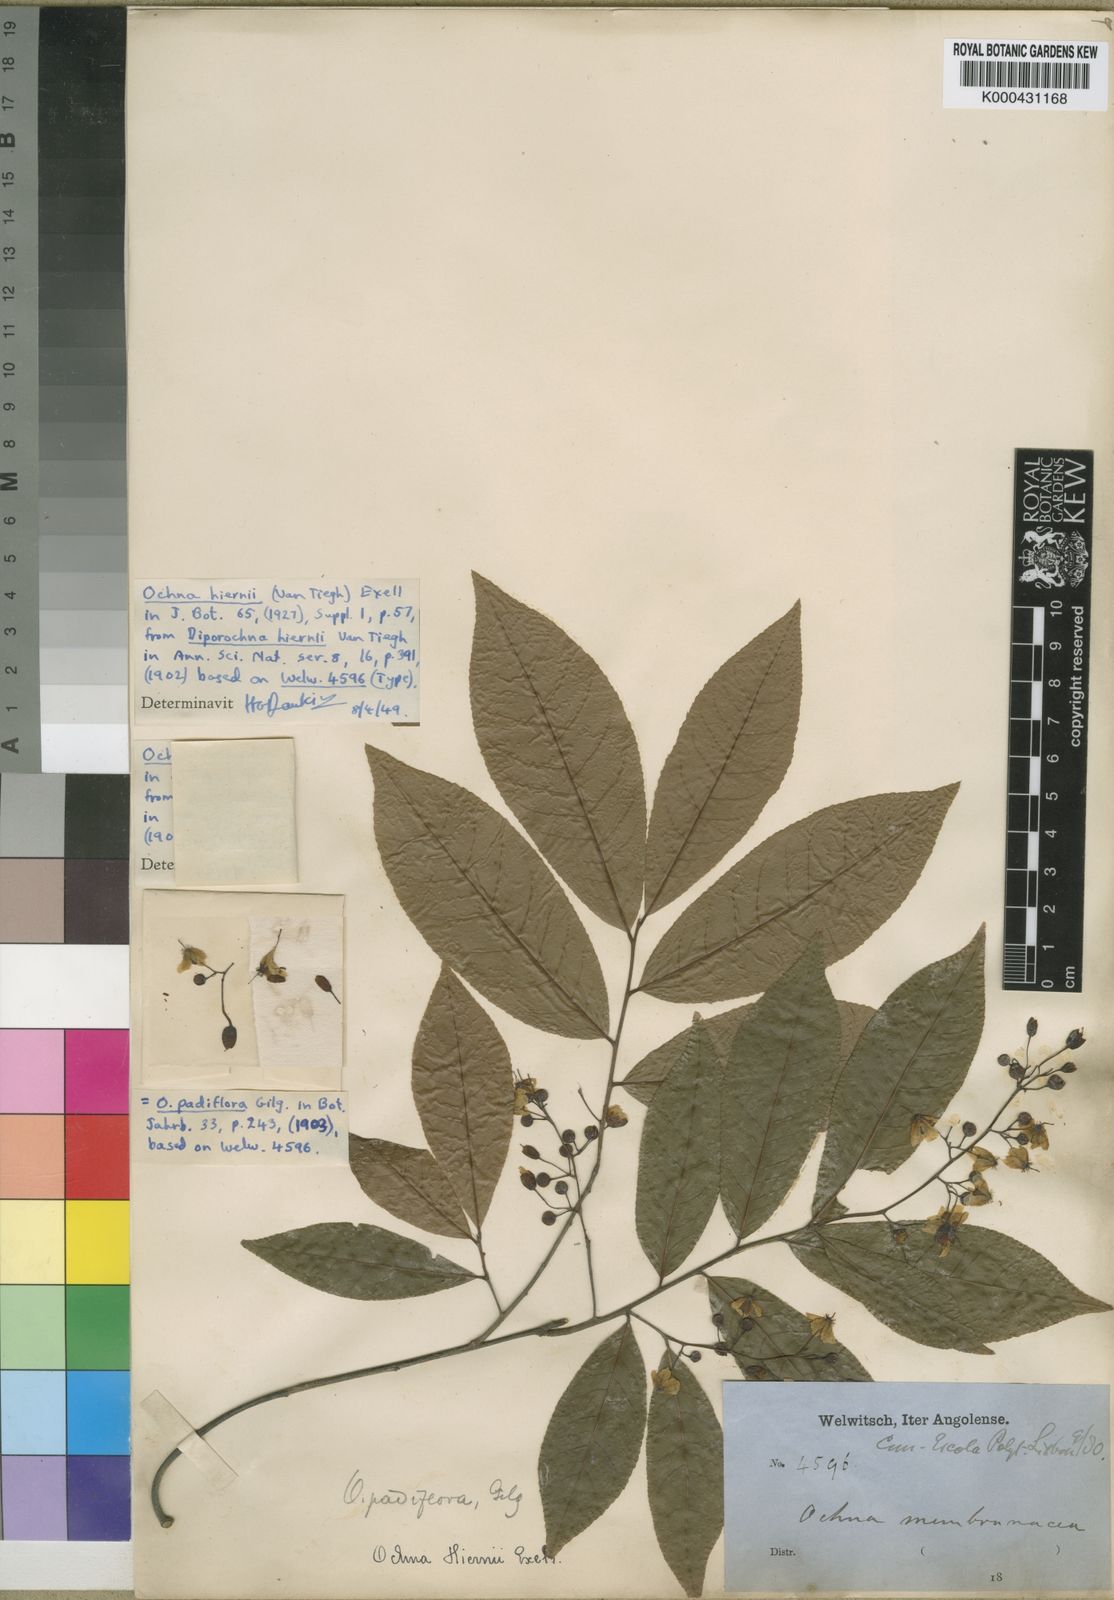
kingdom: Plantae
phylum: Tracheophyta
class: Magnoliopsida
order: Malpighiales
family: Ochnaceae
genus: Ochna
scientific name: Ochna membranacea
